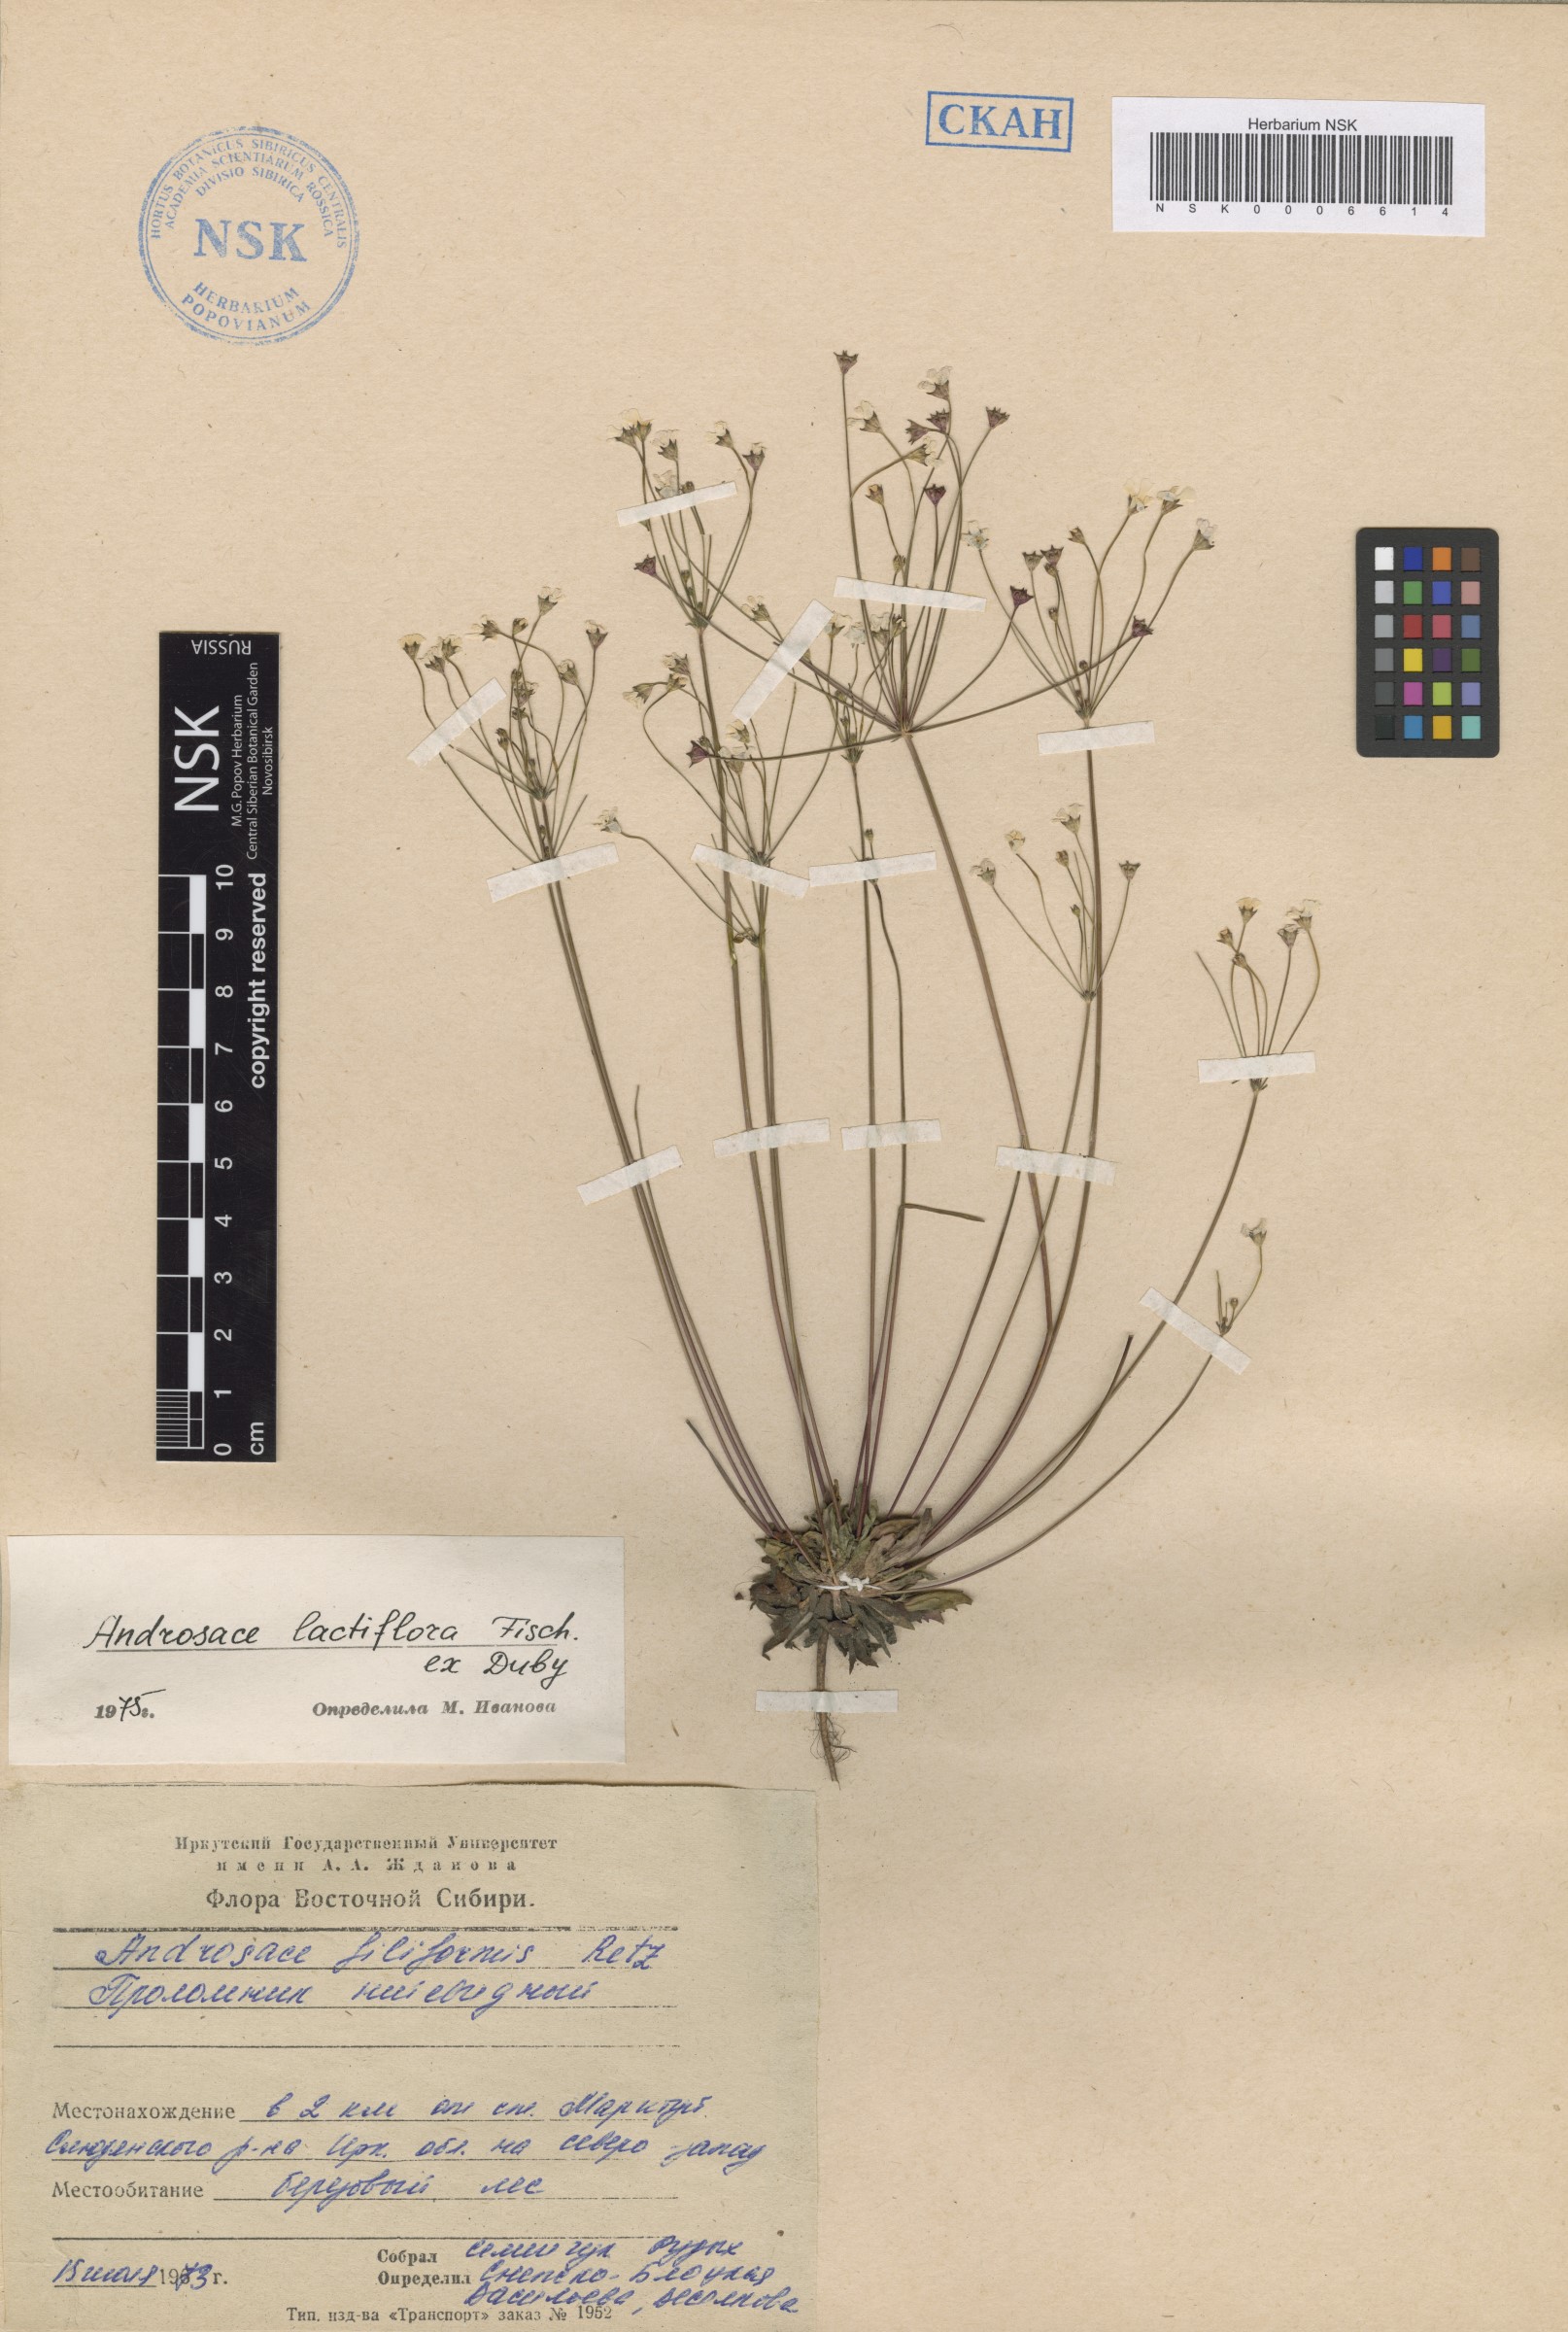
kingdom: Plantae
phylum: Tracheophyta
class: Magnoliopsida
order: Ericales
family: Primulaceae
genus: Androsace
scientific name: Androsace lactiflora
